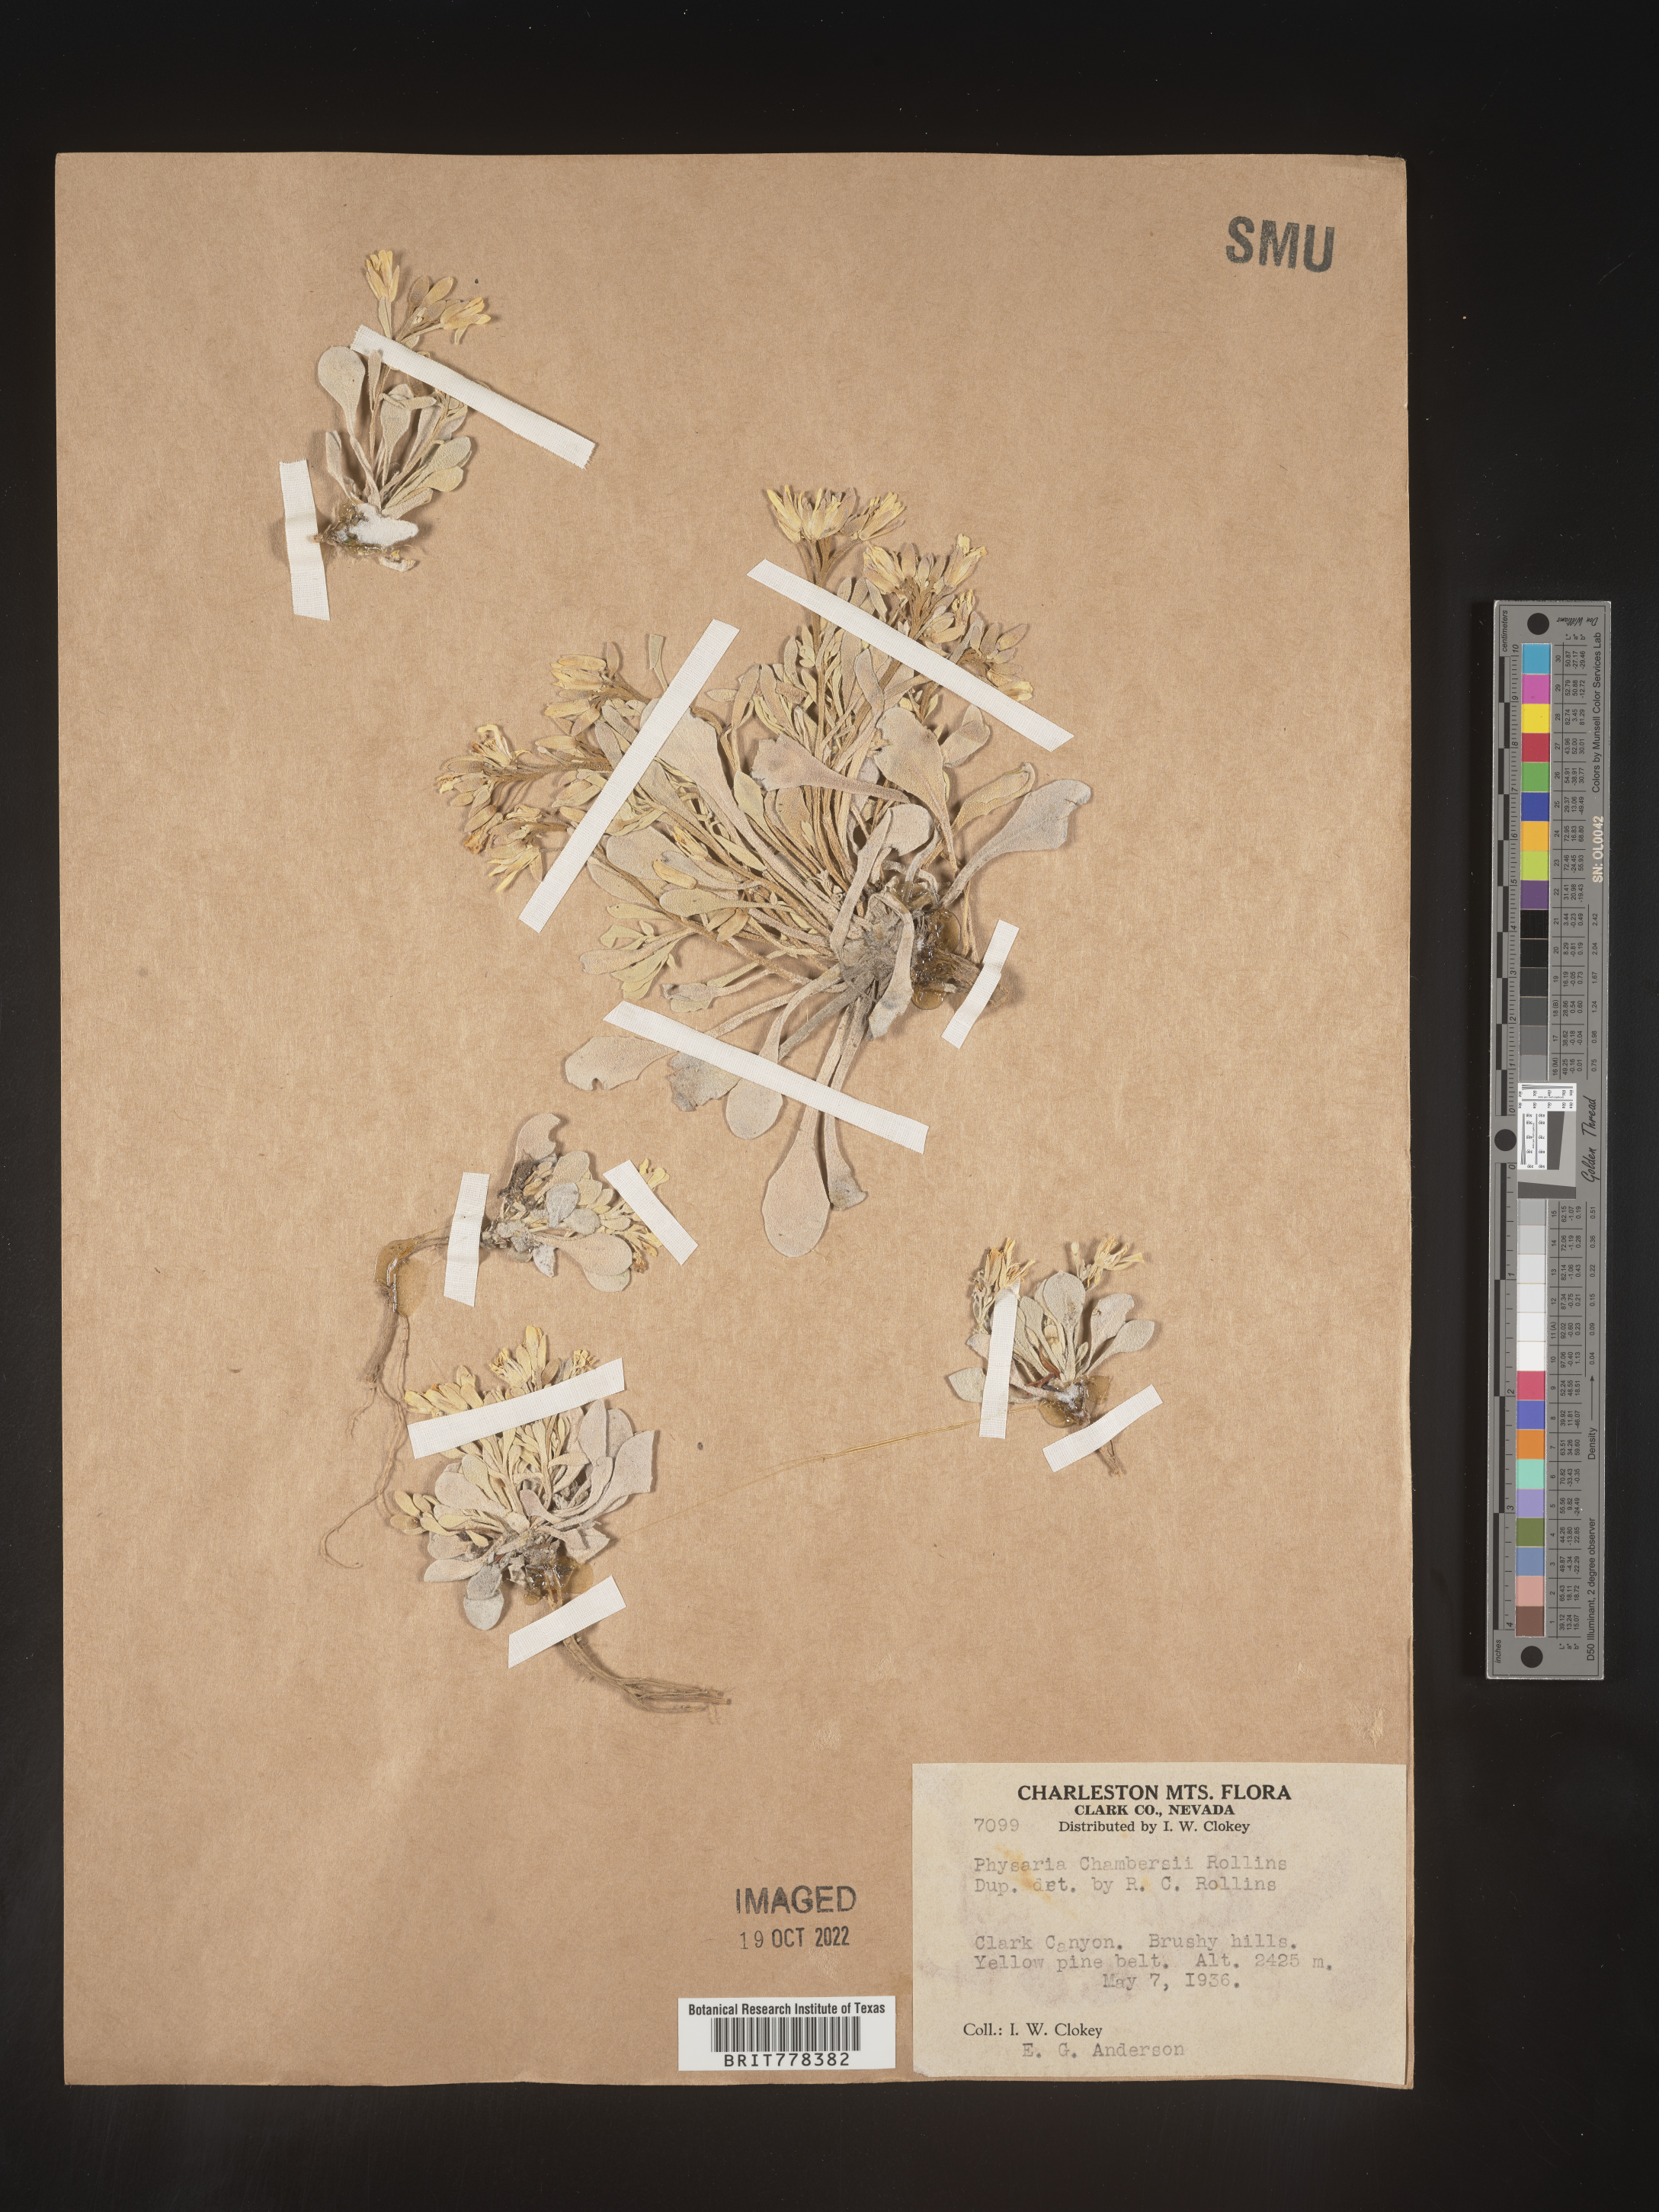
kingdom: Plantae
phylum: Tracheophyta
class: Magnoliopsida
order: Brassicales
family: Brassicaceae
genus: Physaria
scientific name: Physaria
